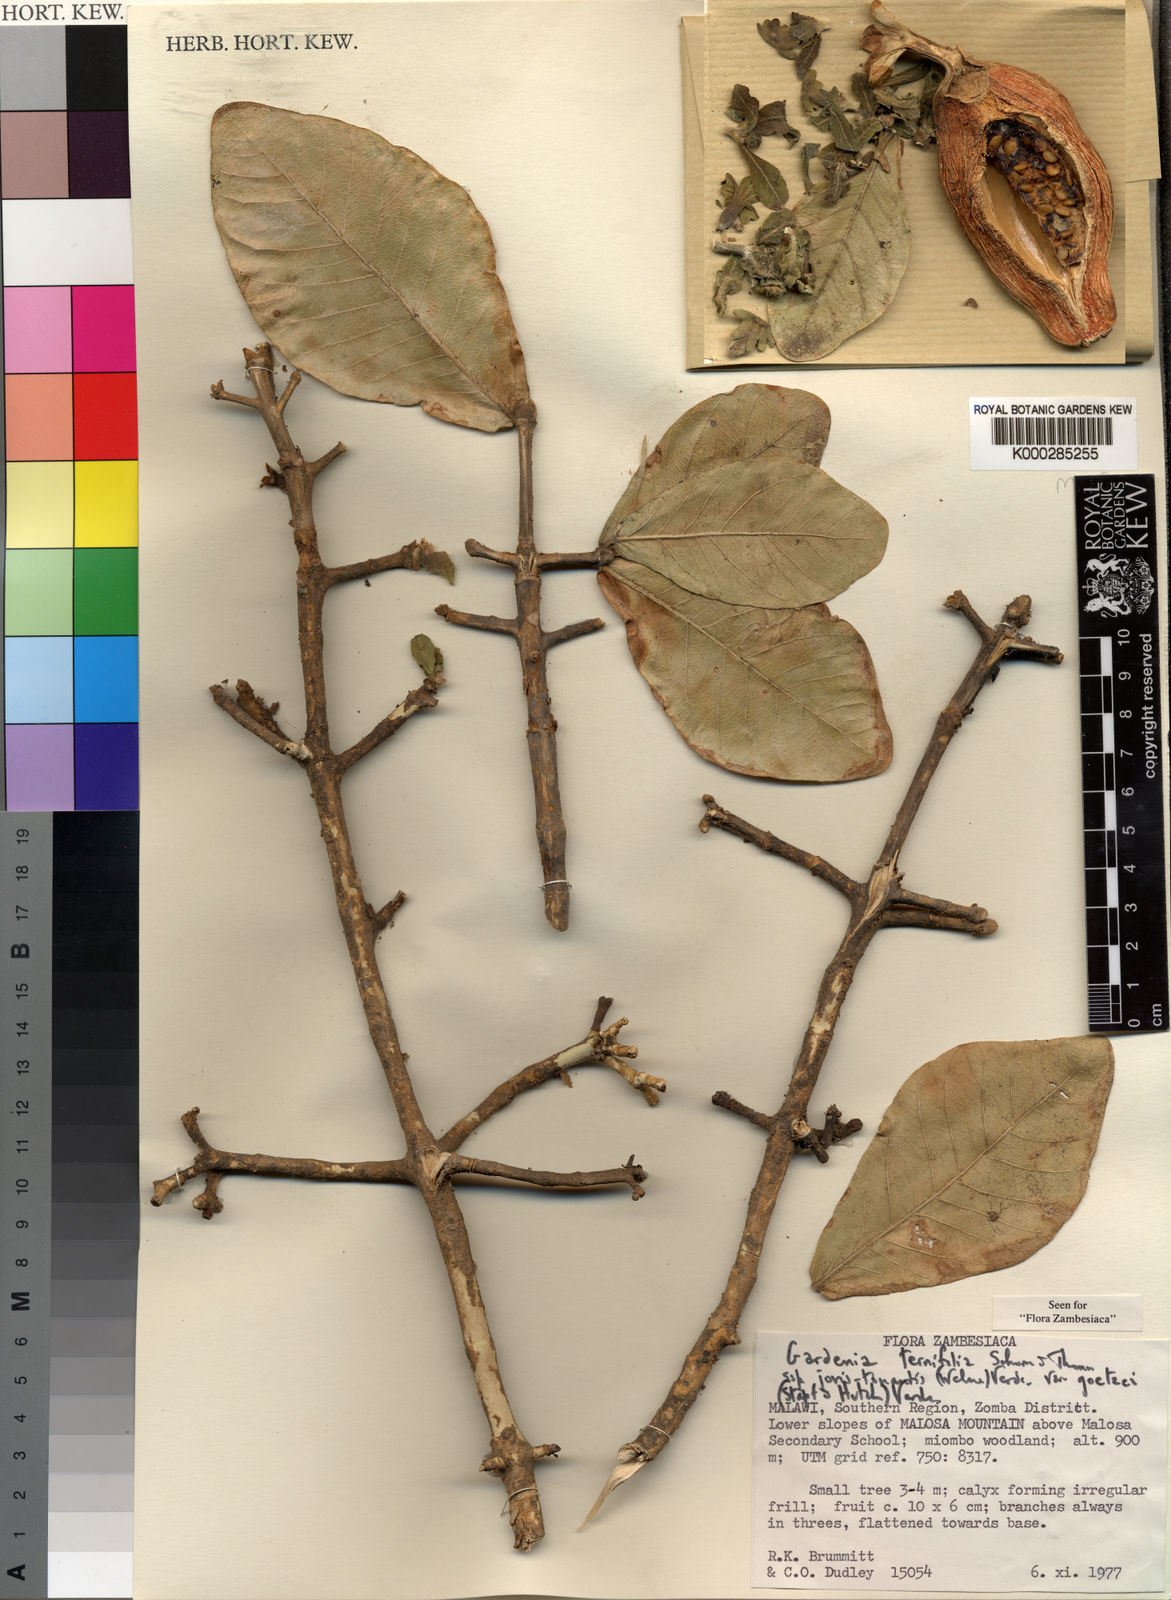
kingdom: Plantae
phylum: Tracheophyta
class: Magnoliopsida
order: Gentianales
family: Rubiaceae
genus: Gardenia
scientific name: Gardenia ternifolia
